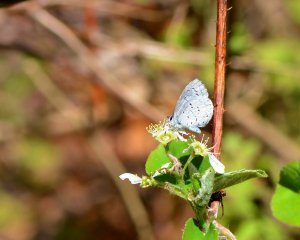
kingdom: Animalia
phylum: Arthropoda
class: Insecta
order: Lepidoptera
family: Lycaenidae
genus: Celastrina
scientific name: Celastrina ladon
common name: Spring Azure
